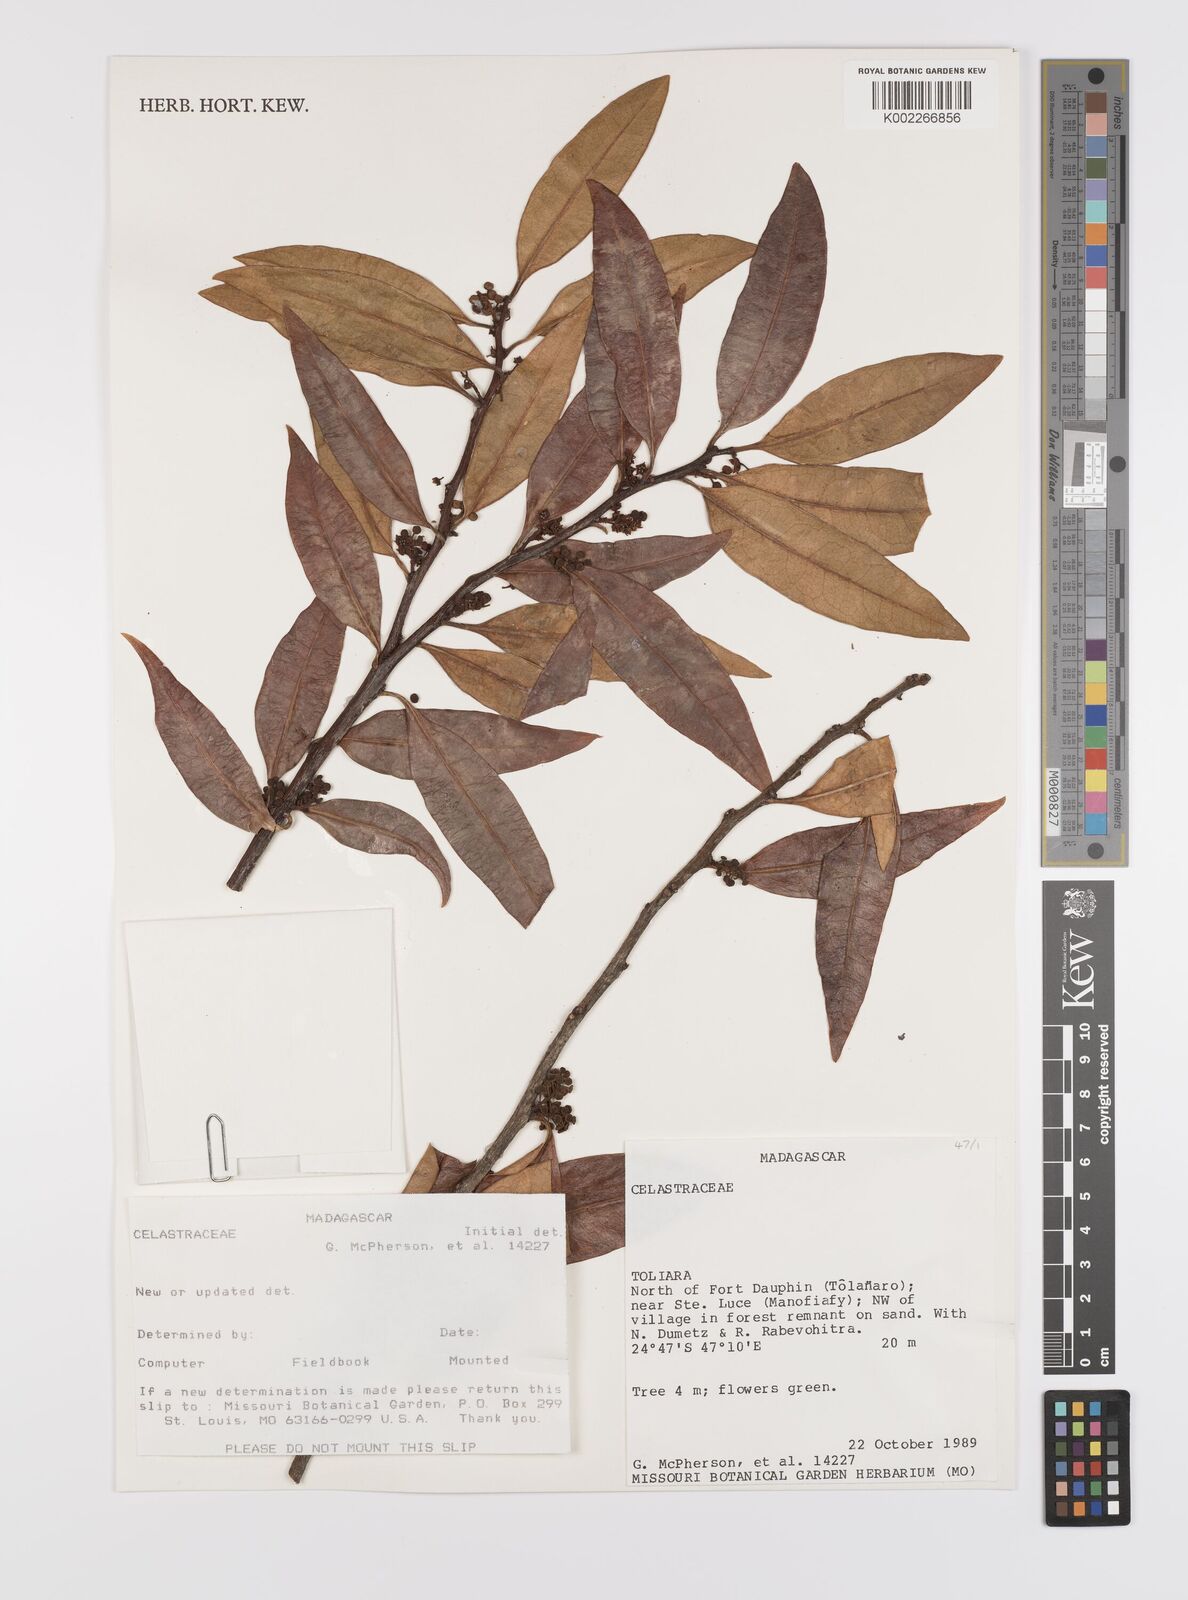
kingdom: Plantae
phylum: Tracheophyta
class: Magnoliopsida
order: Celastrales
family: Celastraceae
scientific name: Celastraceae
